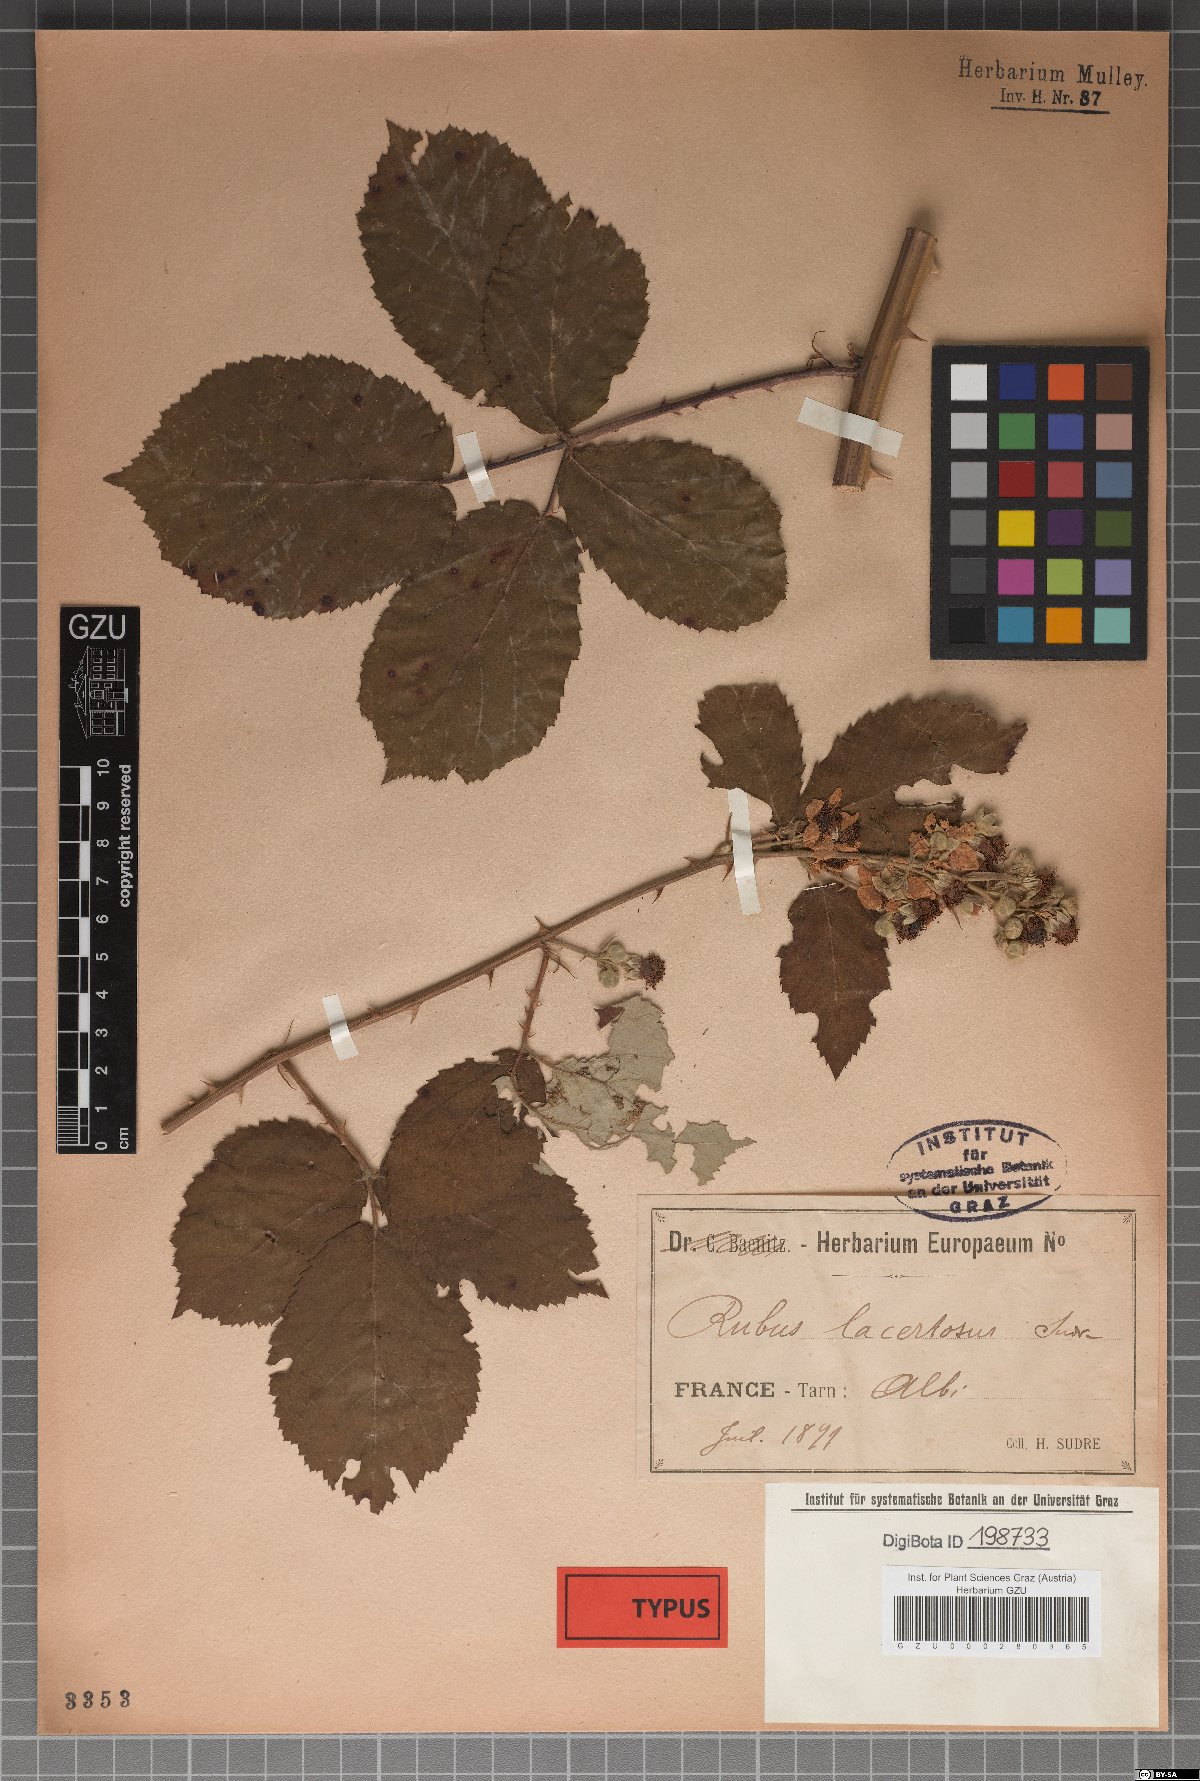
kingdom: Plantae
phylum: Tracheophyta
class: Magnoliopsida
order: Rosales
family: Rosaceae
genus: Rubus
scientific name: Rubus procerus
